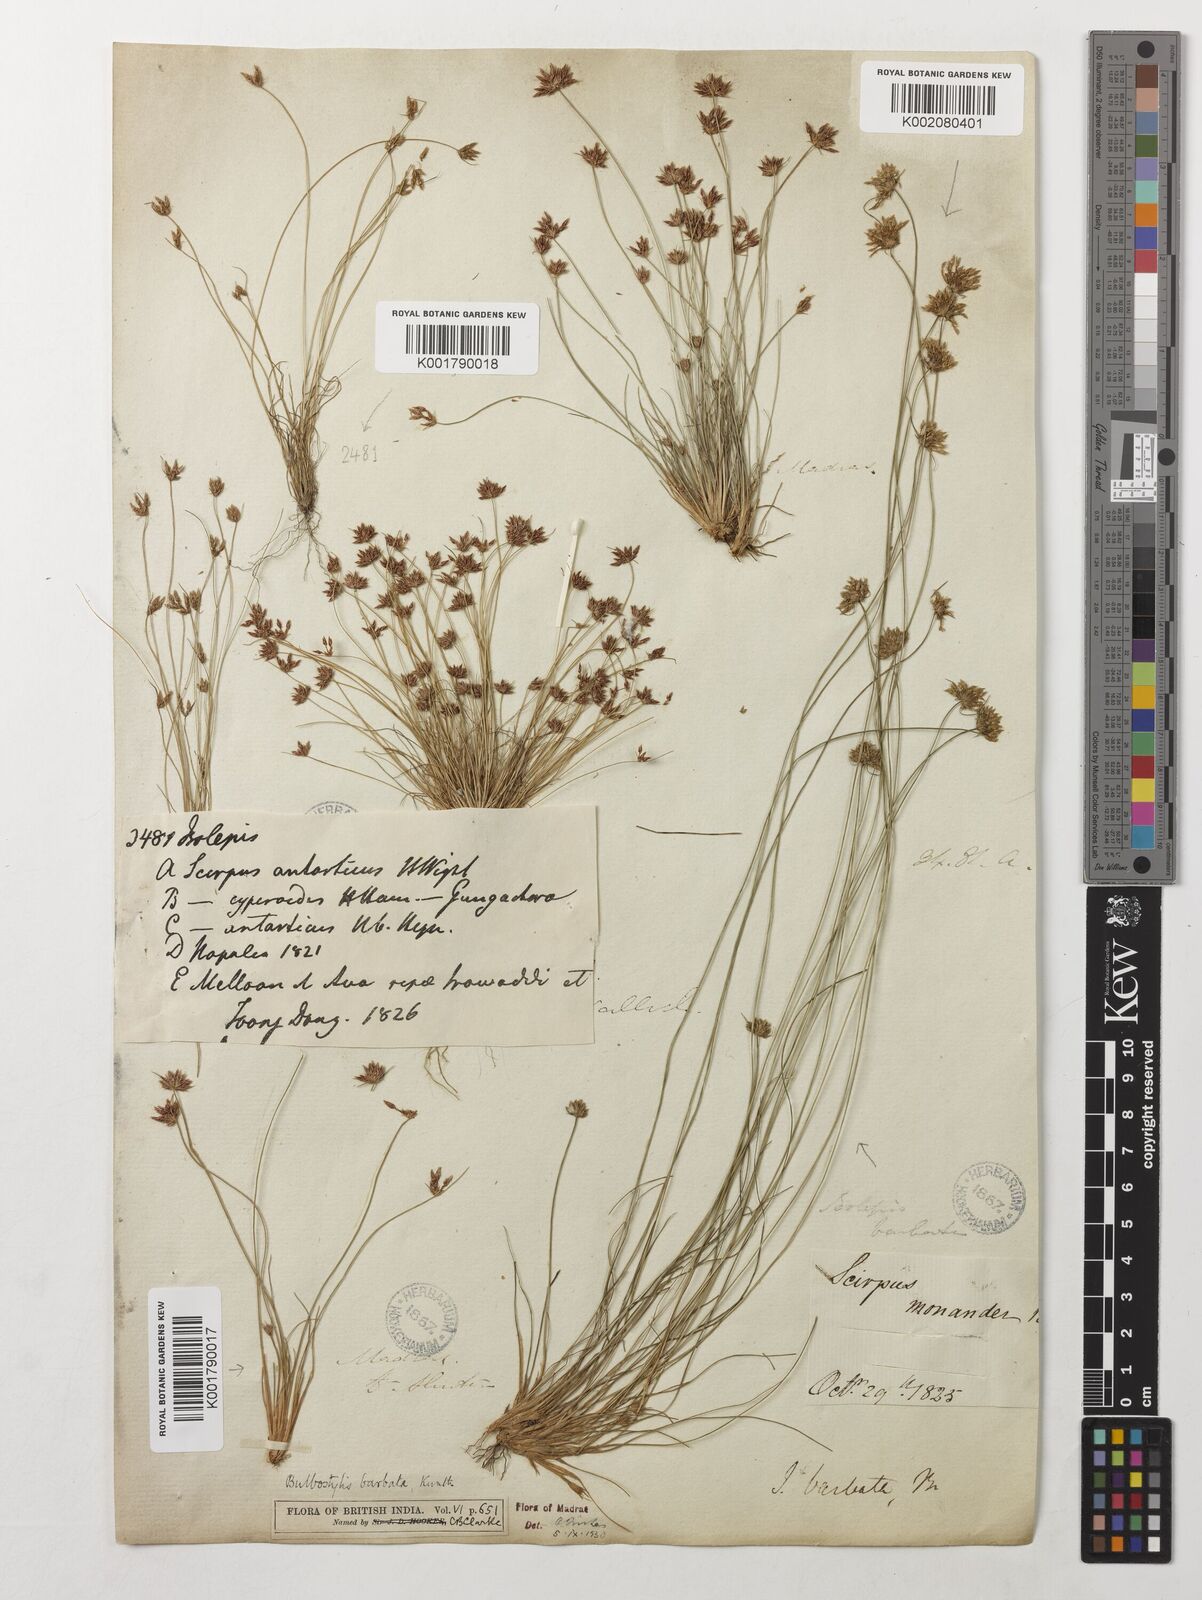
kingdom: Plantae
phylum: Tracheophyta
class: Liliopsida
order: Poales
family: Cyperaceae
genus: Bulbostylis
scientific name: Bulbostylis barbata
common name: Watergrass
